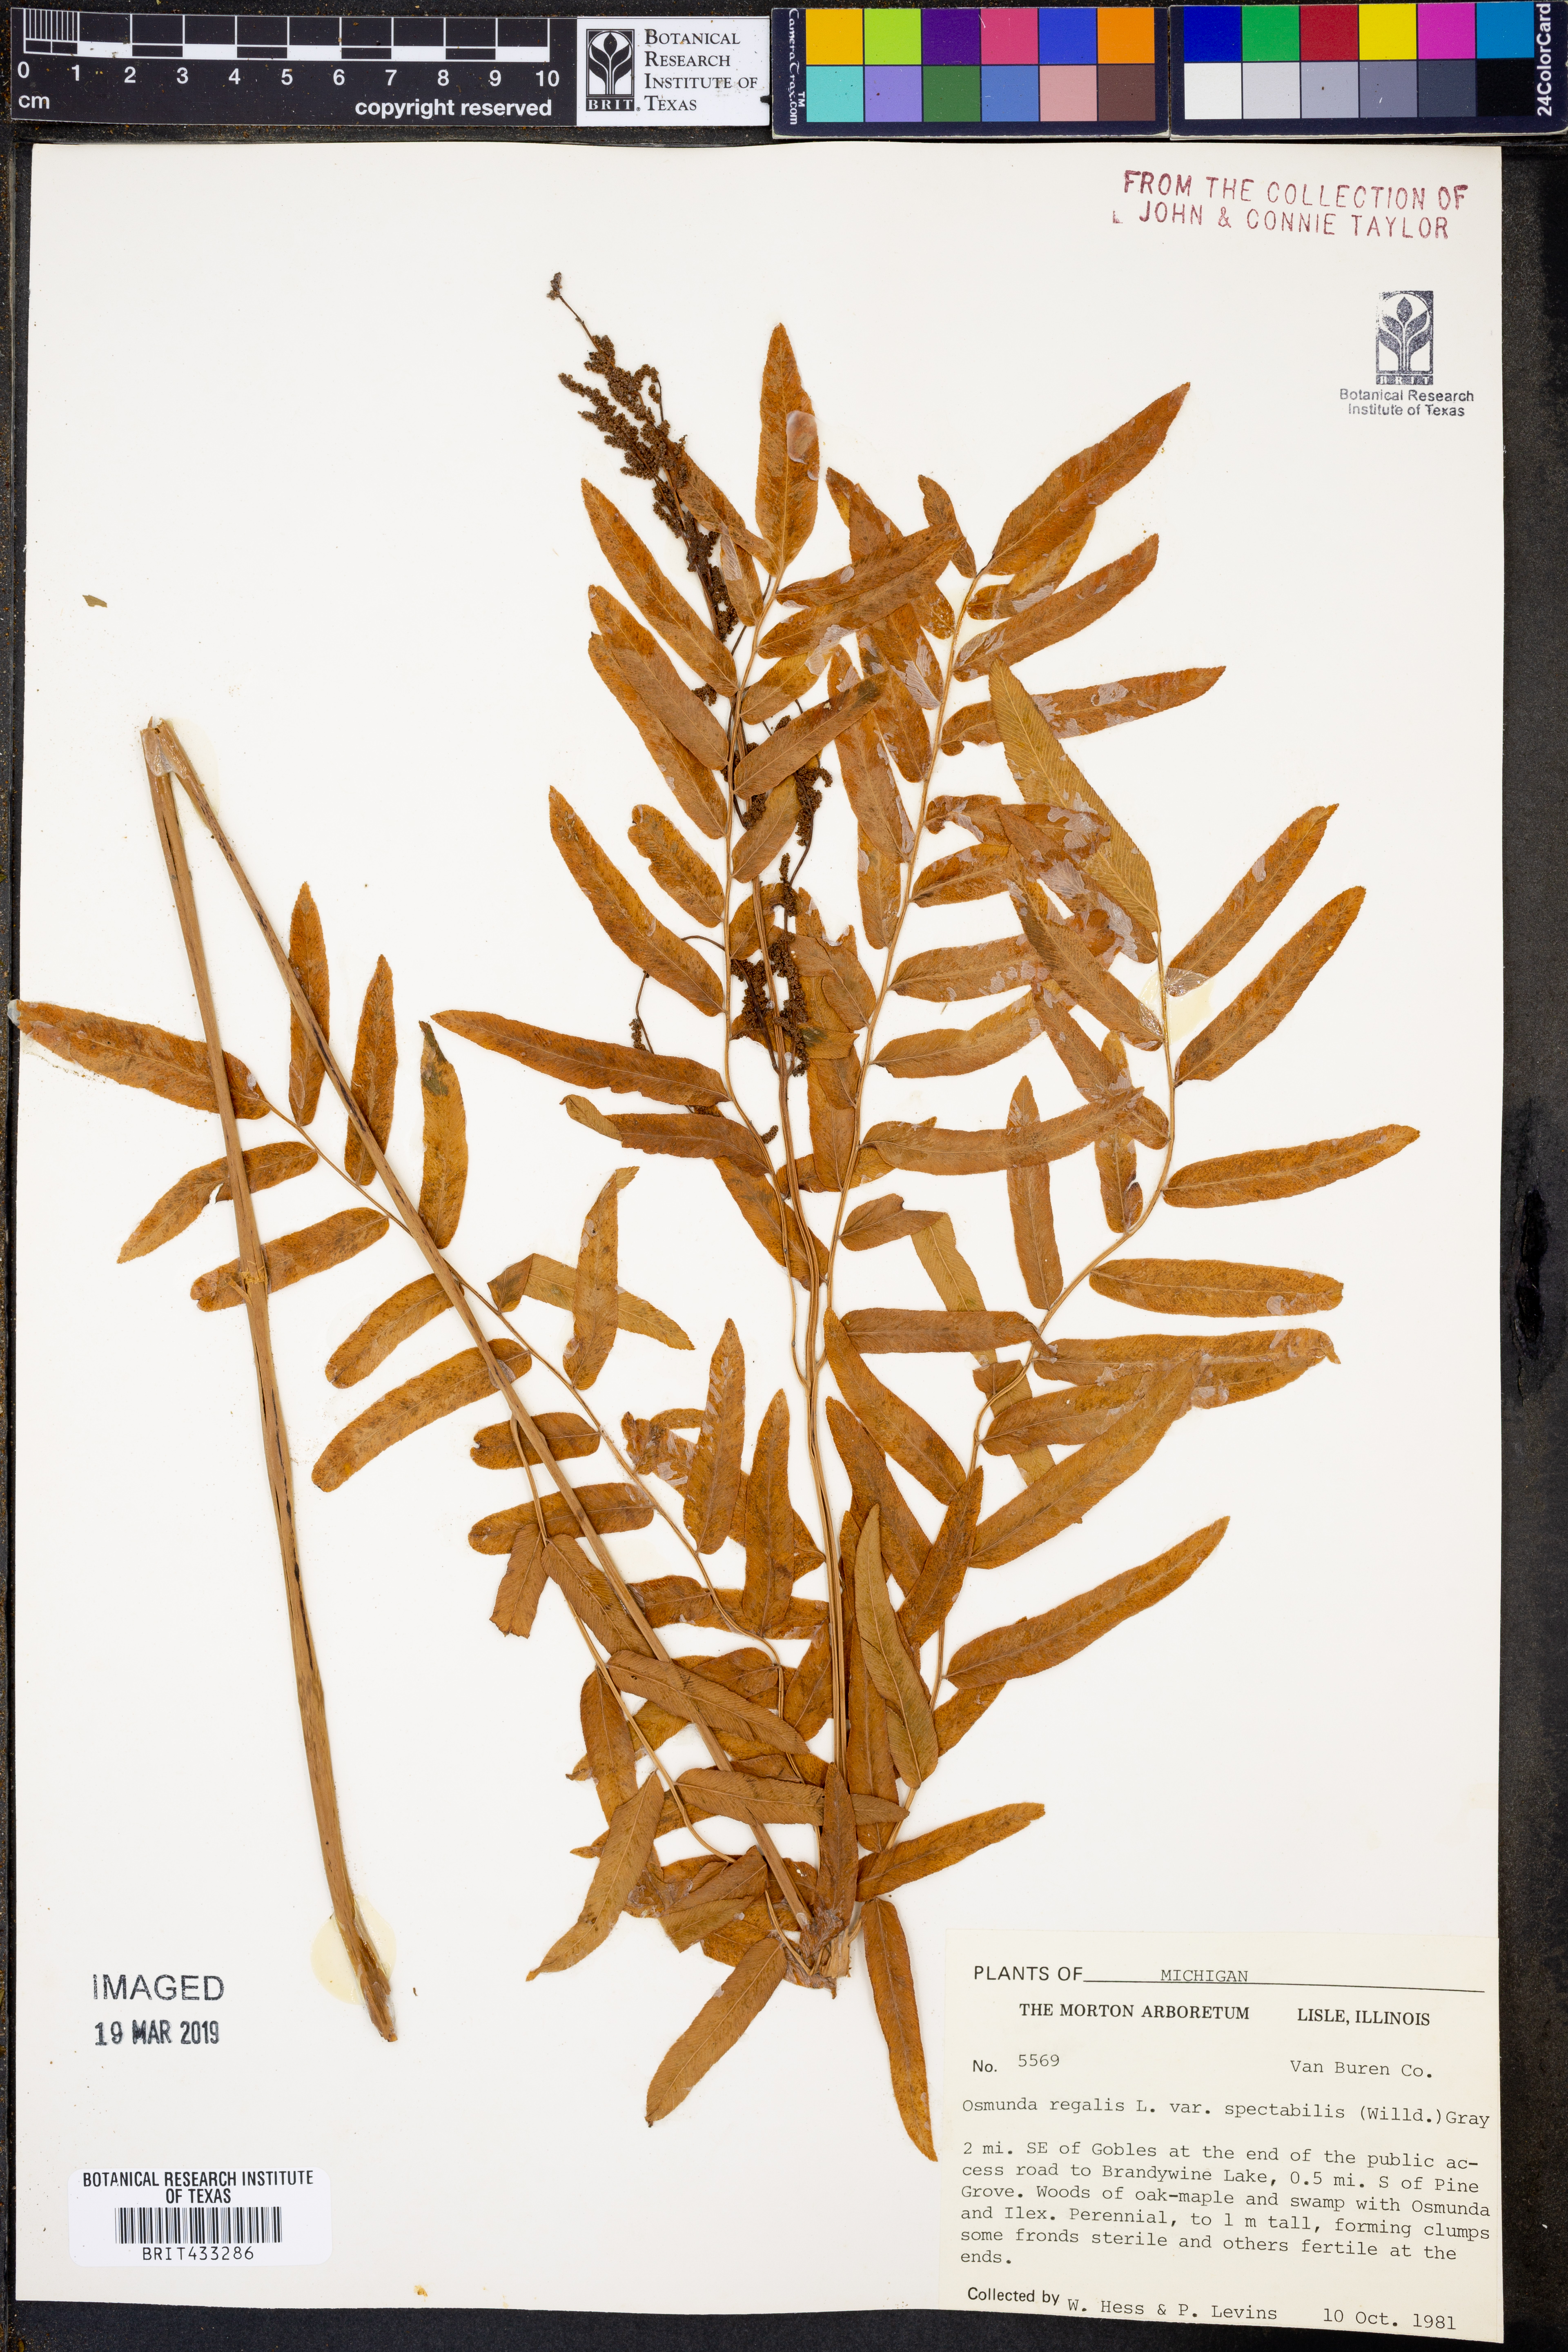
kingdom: Plantae
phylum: Tracheophyta
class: Polypodiopsida
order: Osmundales
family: Osmundaceae
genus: Osmunda
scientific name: Osmunda spectabilis
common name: American royal fern
